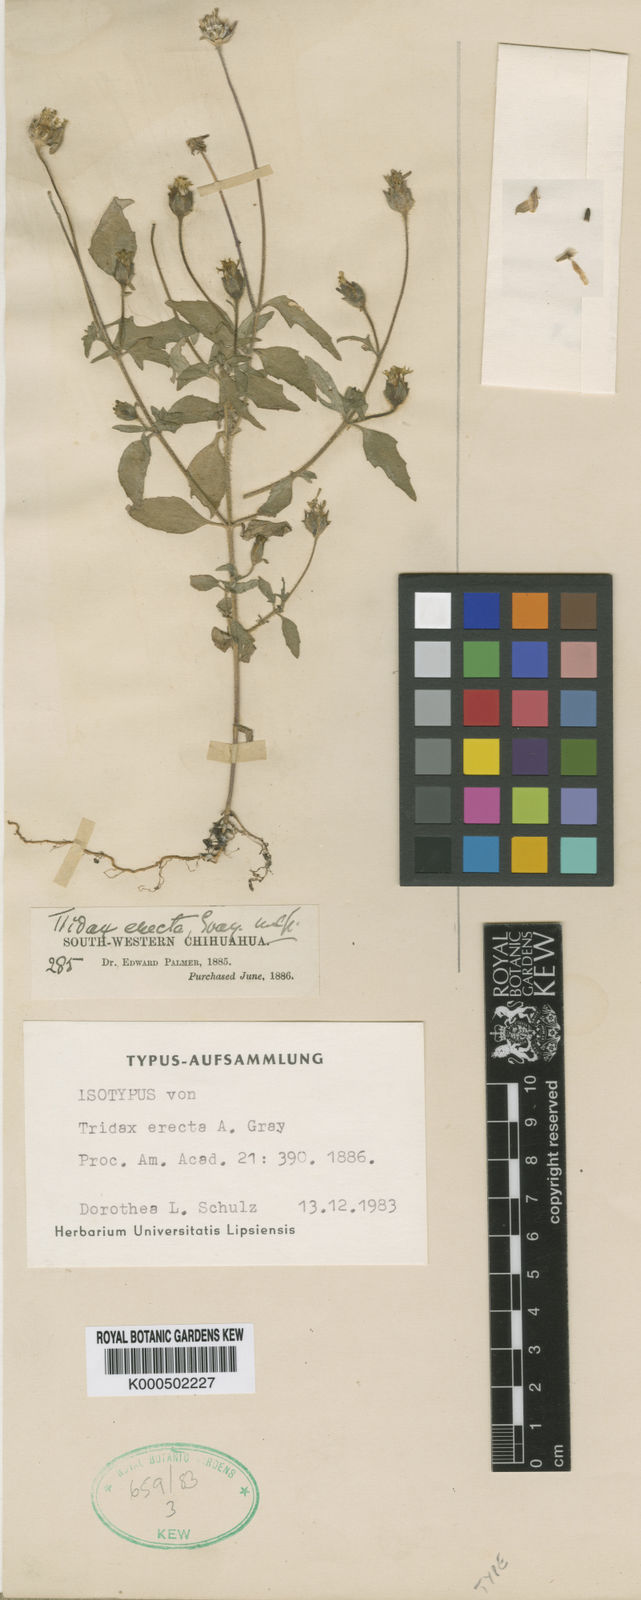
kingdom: Plantae
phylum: Tracheophyta
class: Magnoliopsida
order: Asterales
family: Asteraceae
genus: Tridax
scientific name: Tridax erecta
